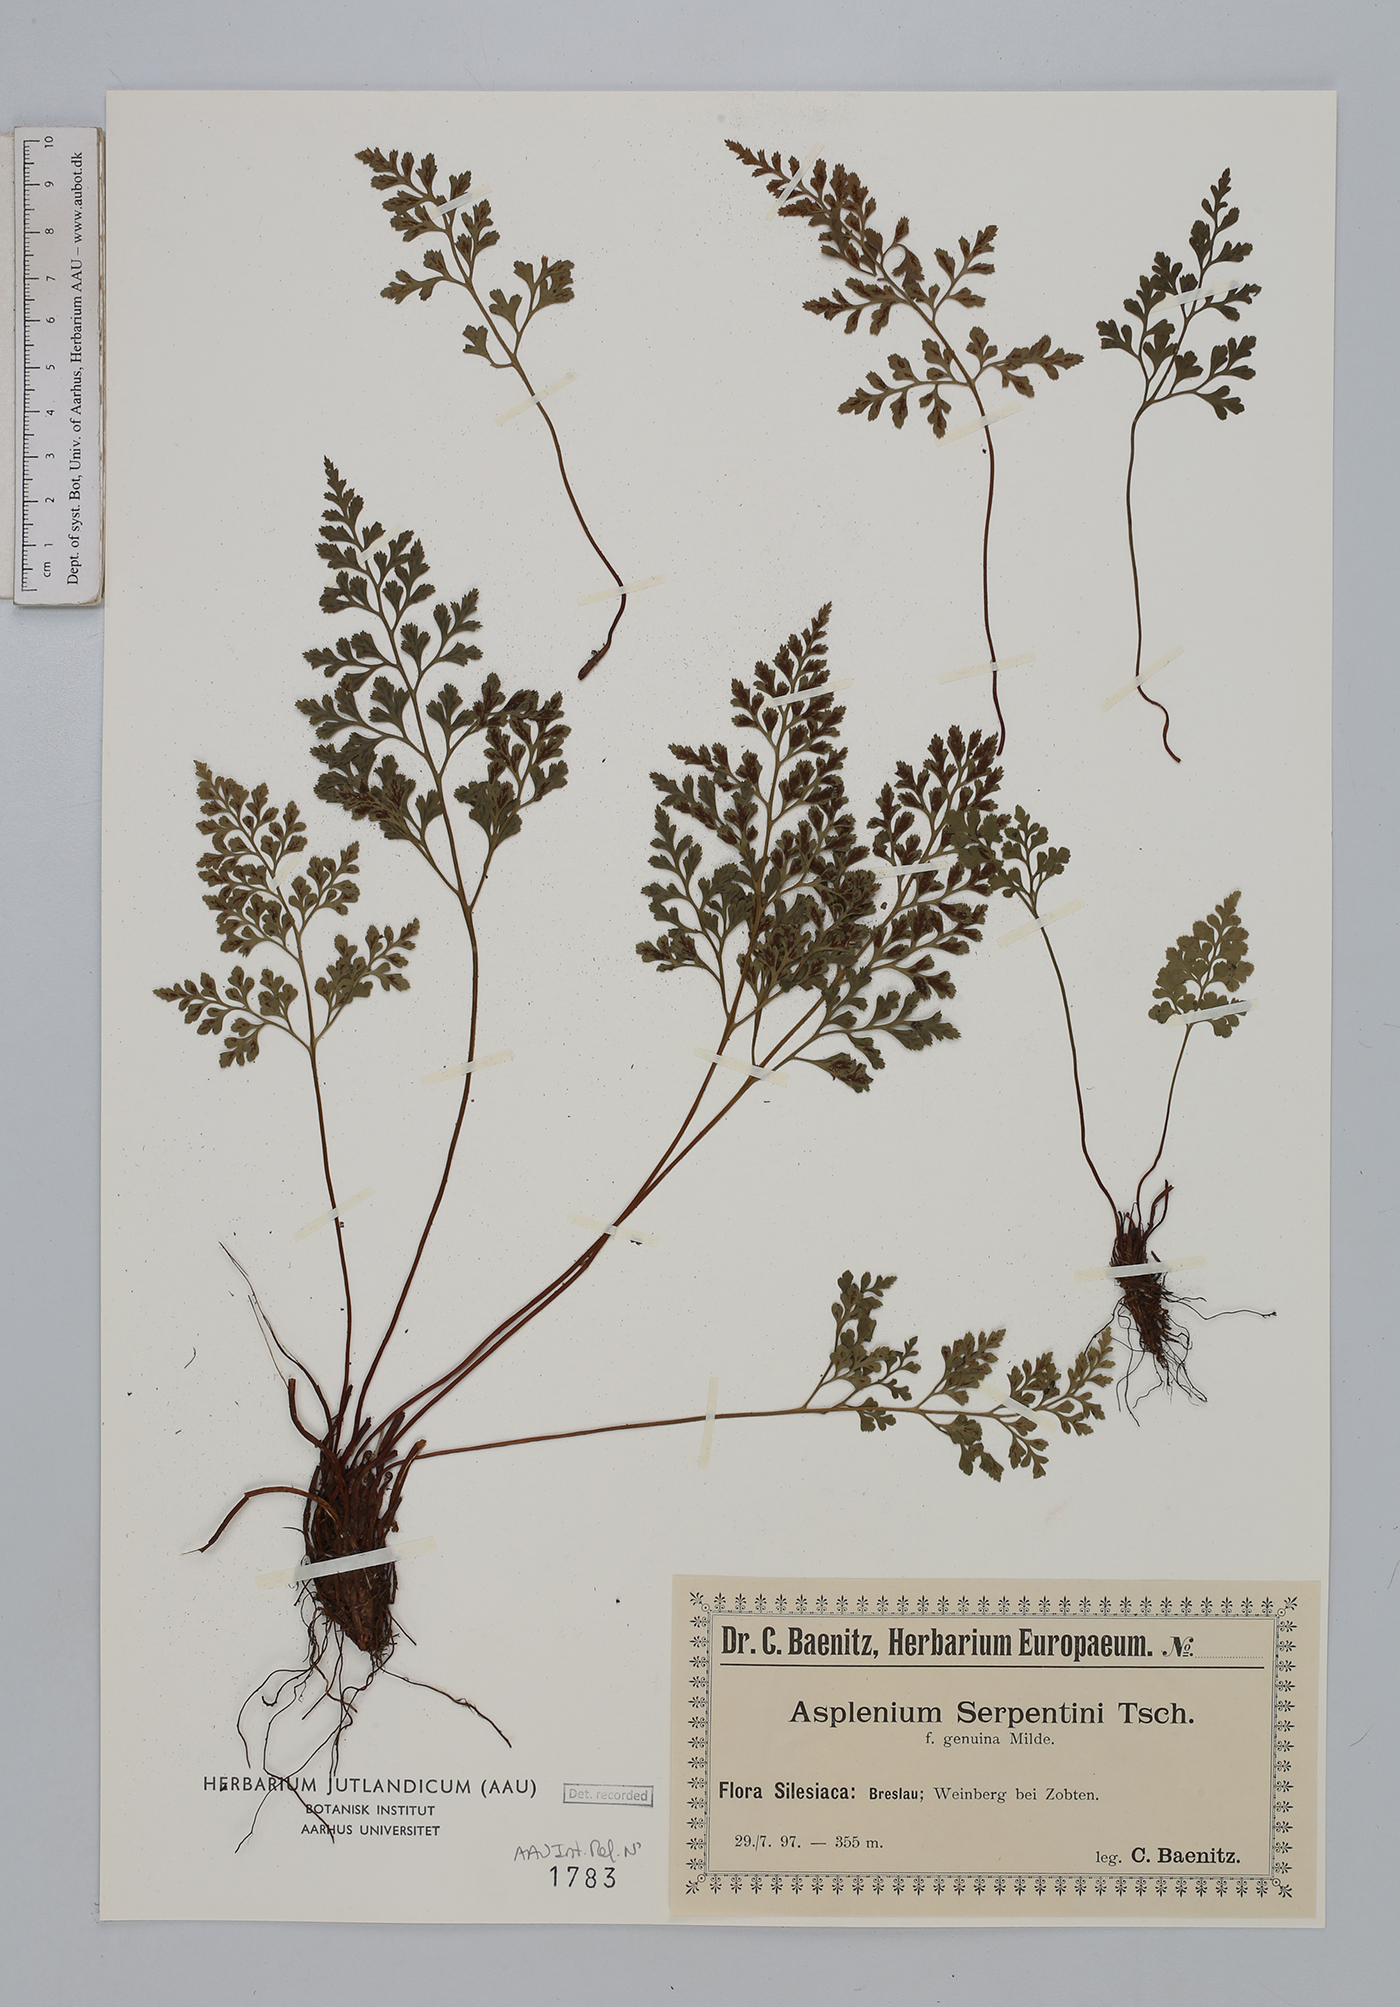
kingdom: Plantae
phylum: Tracheophyta
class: Polypodiopsida
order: Polypodiales
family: Aspleniaceae
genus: Asplenium
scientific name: Asplenium cuneifolium
